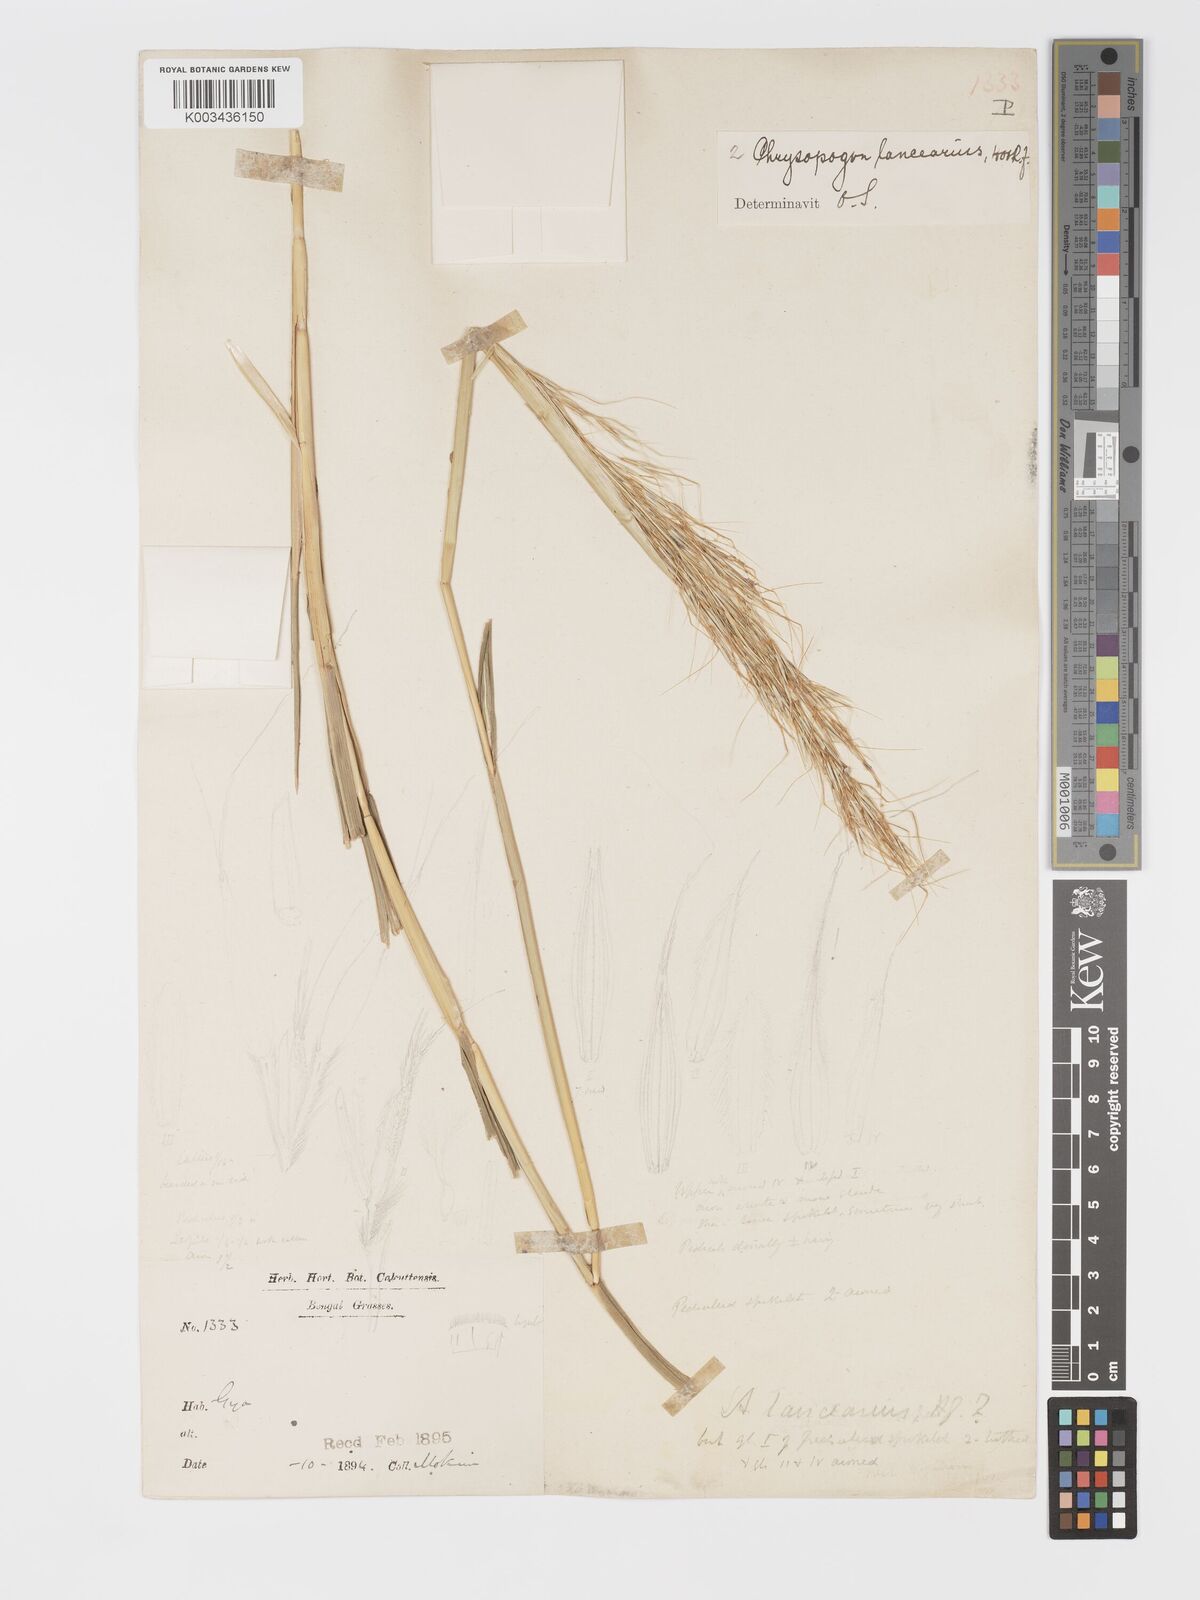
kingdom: Plantae
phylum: Tracheophyta
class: Liliopsida
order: Poales
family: Poaceae
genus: Chrysopogon
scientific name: Chrysopogon lancearius
